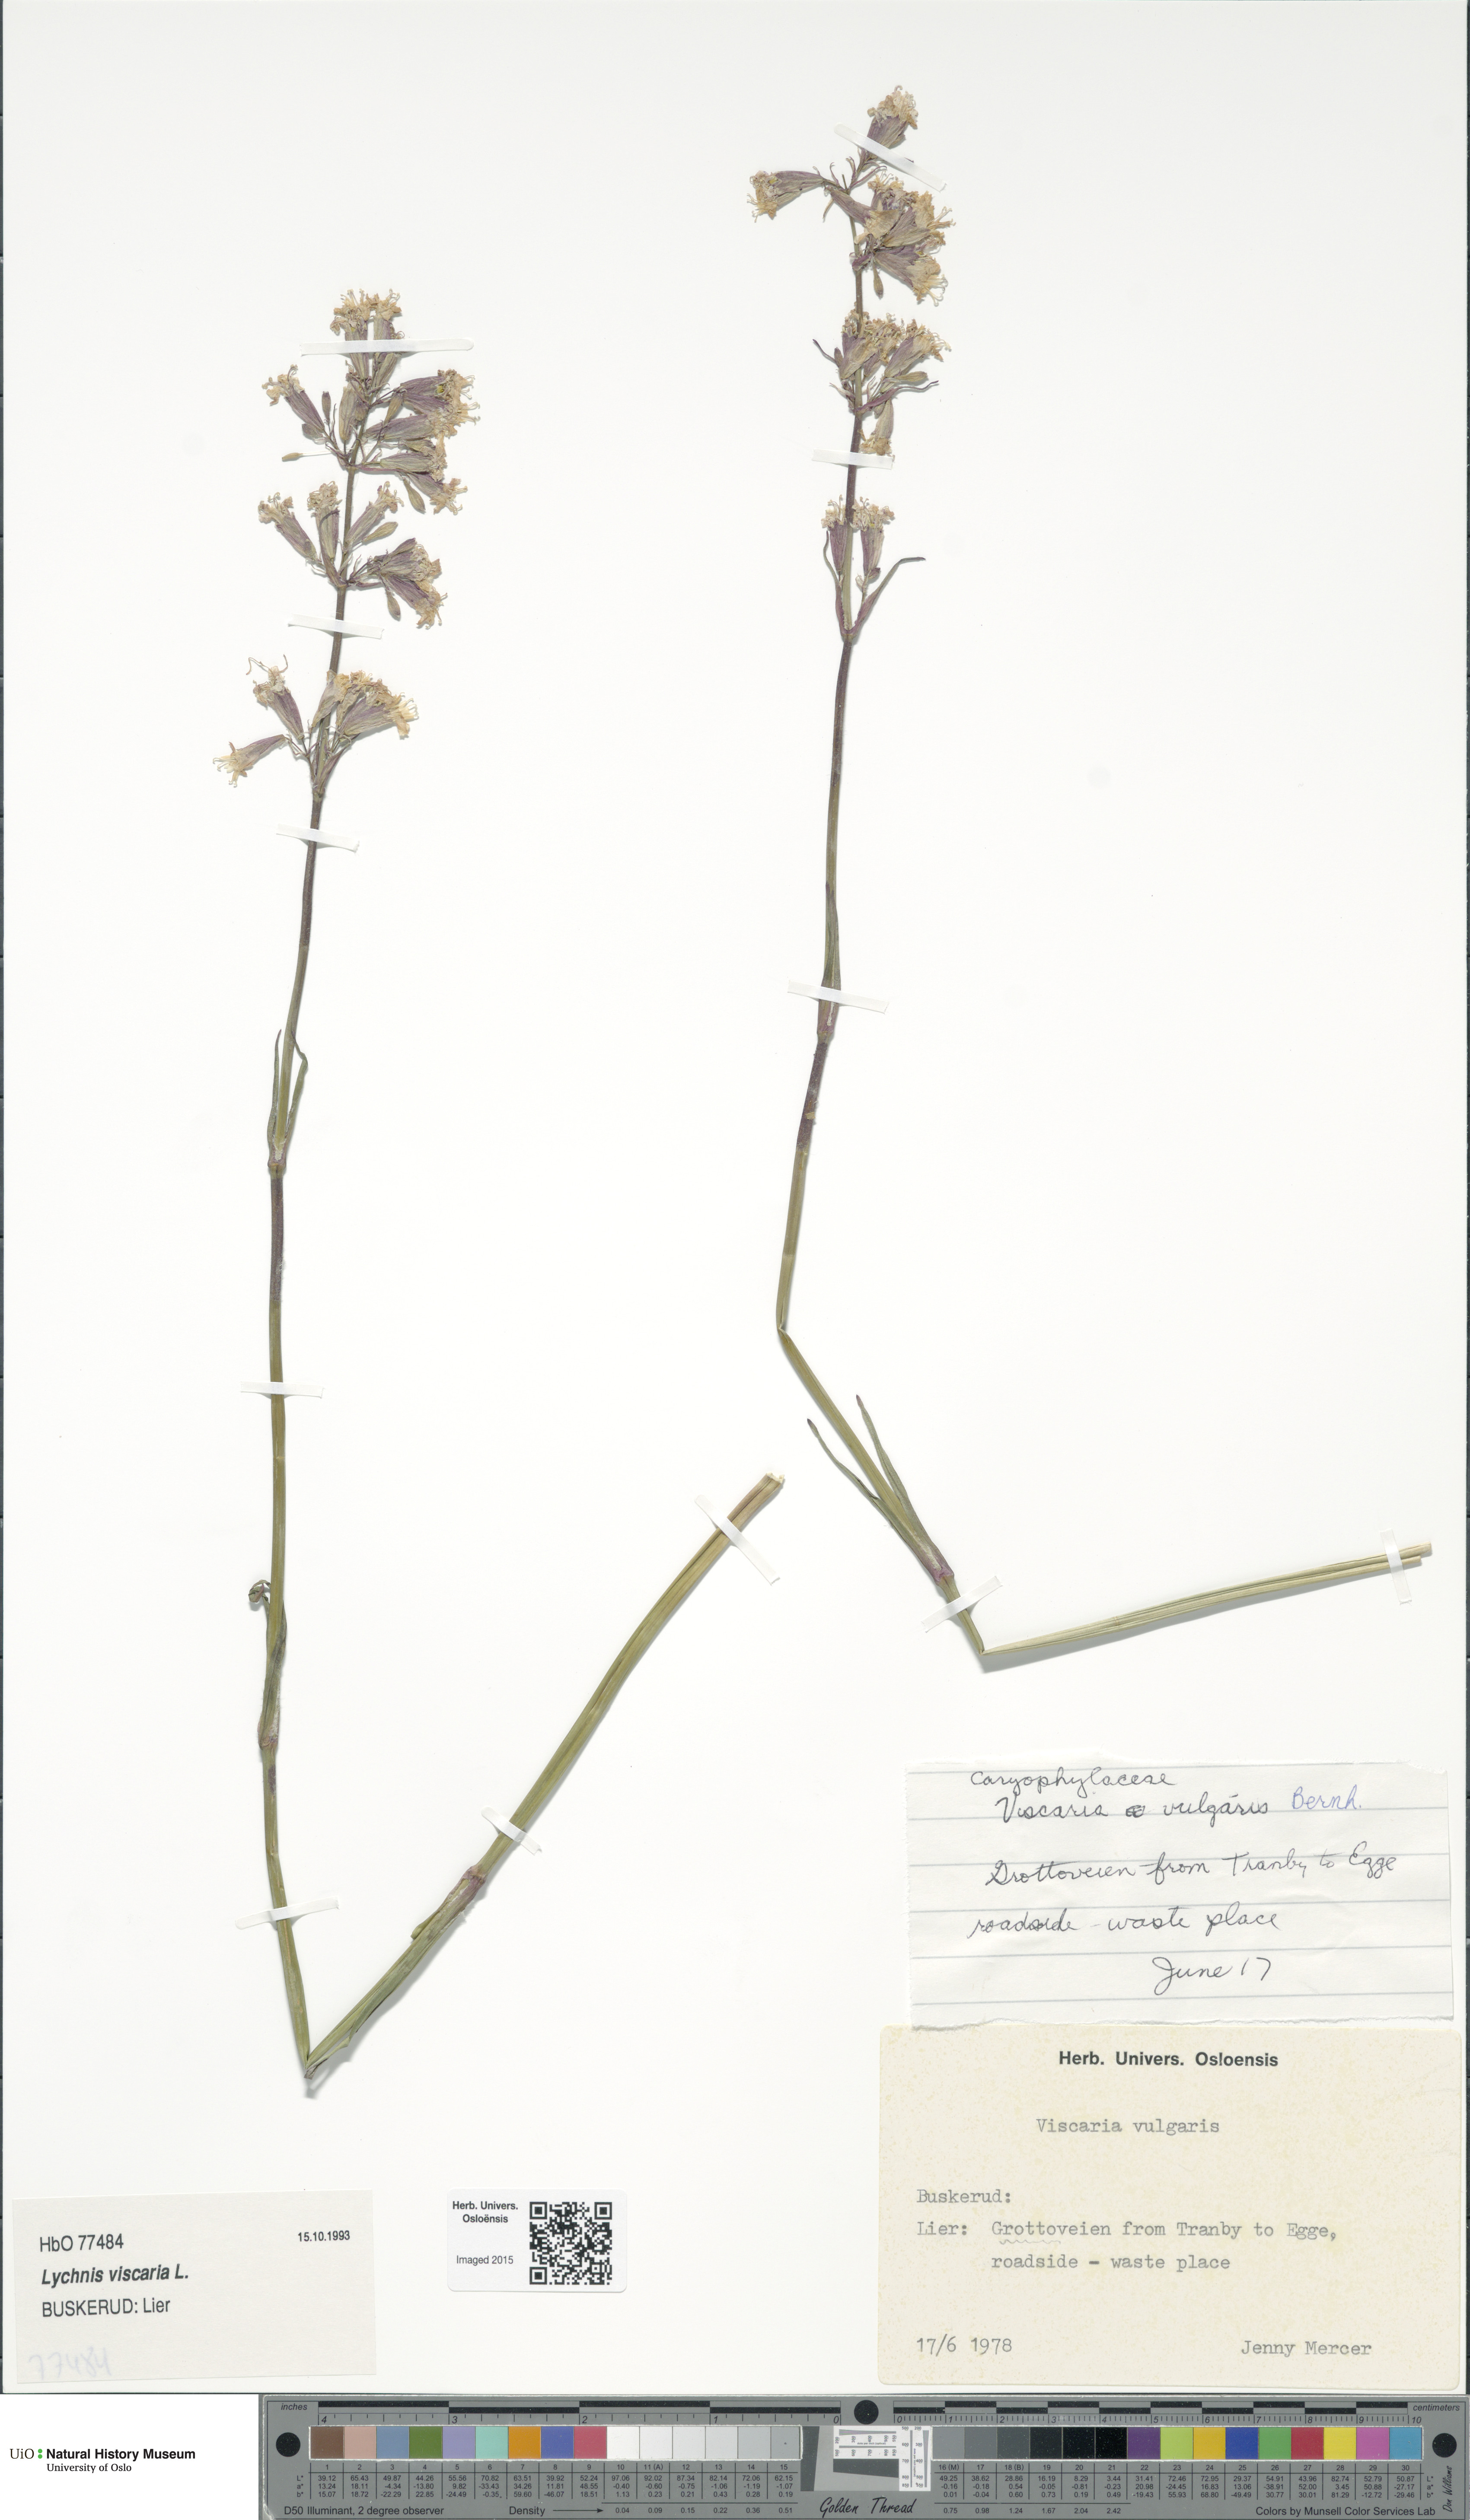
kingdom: Plantae
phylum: Tracheophyta
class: Magnoliopsida
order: Caryophyllales
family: Caryophyllaceae
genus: Viscaria
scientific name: Viscaria vulgaris
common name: Clammy campion
